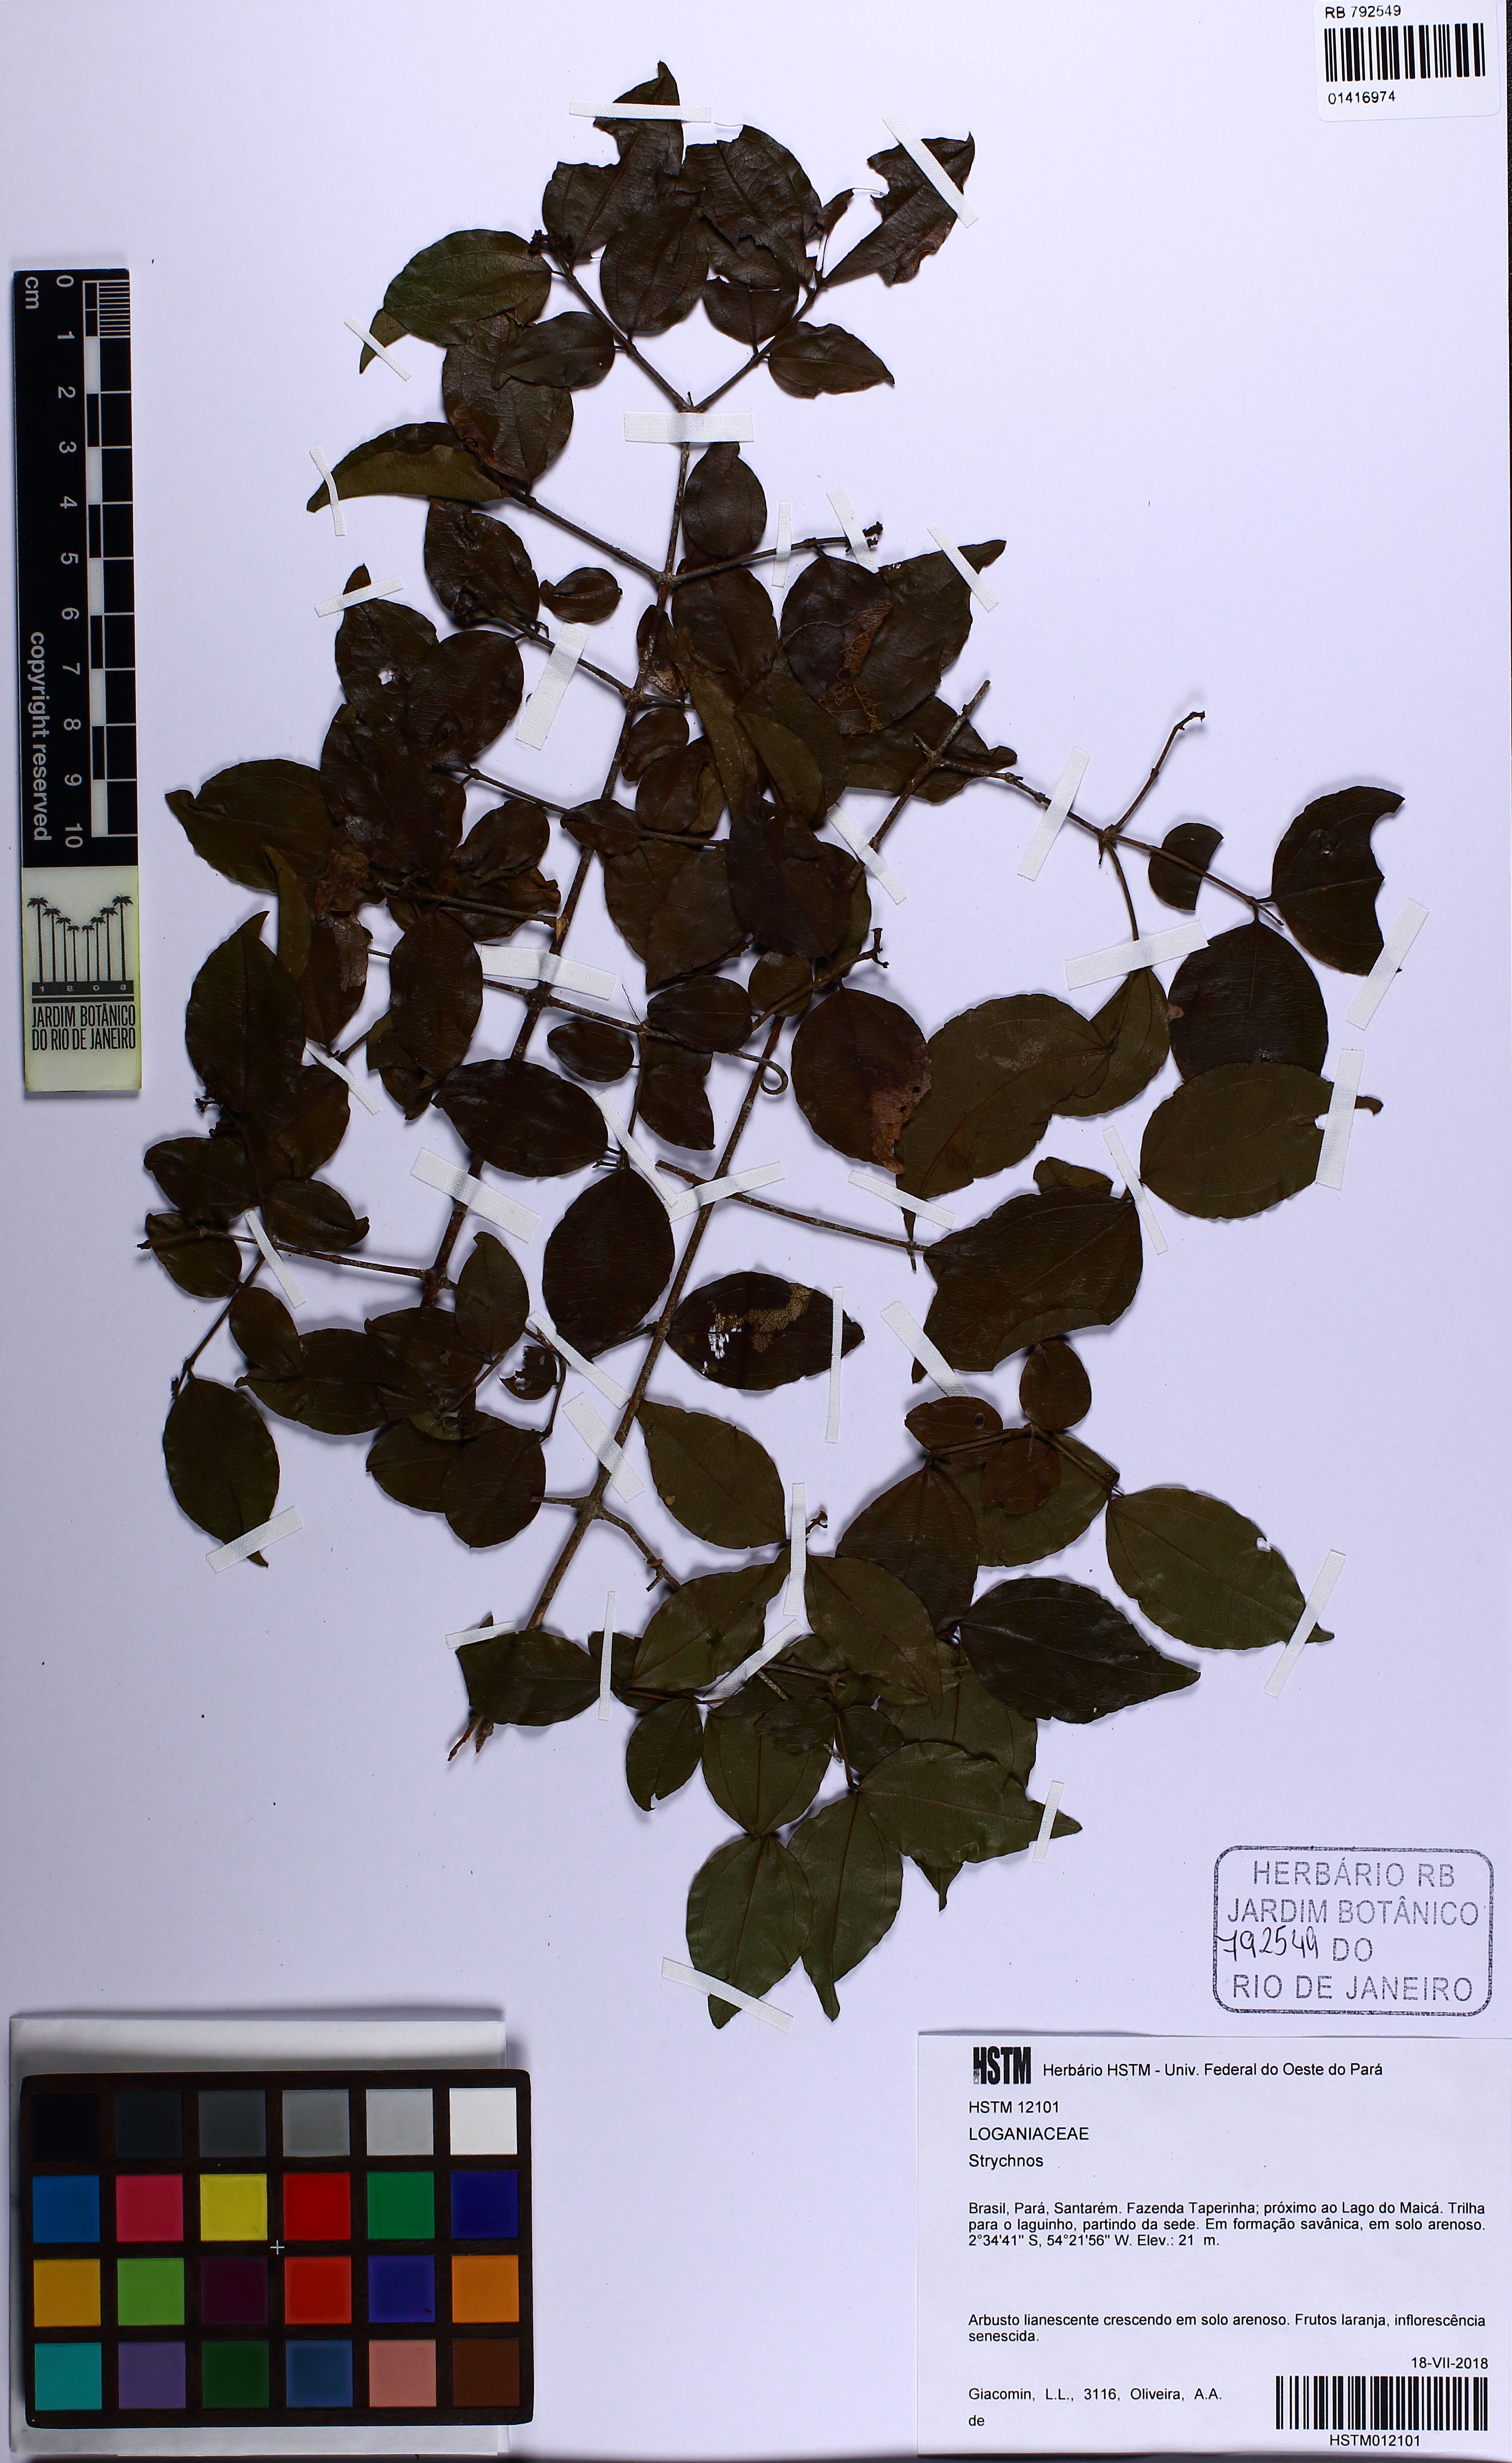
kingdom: Plantae
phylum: Tracheophyta
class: Magnoliopsida
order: Gentianales
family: Loganiaceae
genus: Strychnos
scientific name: Strychnos
